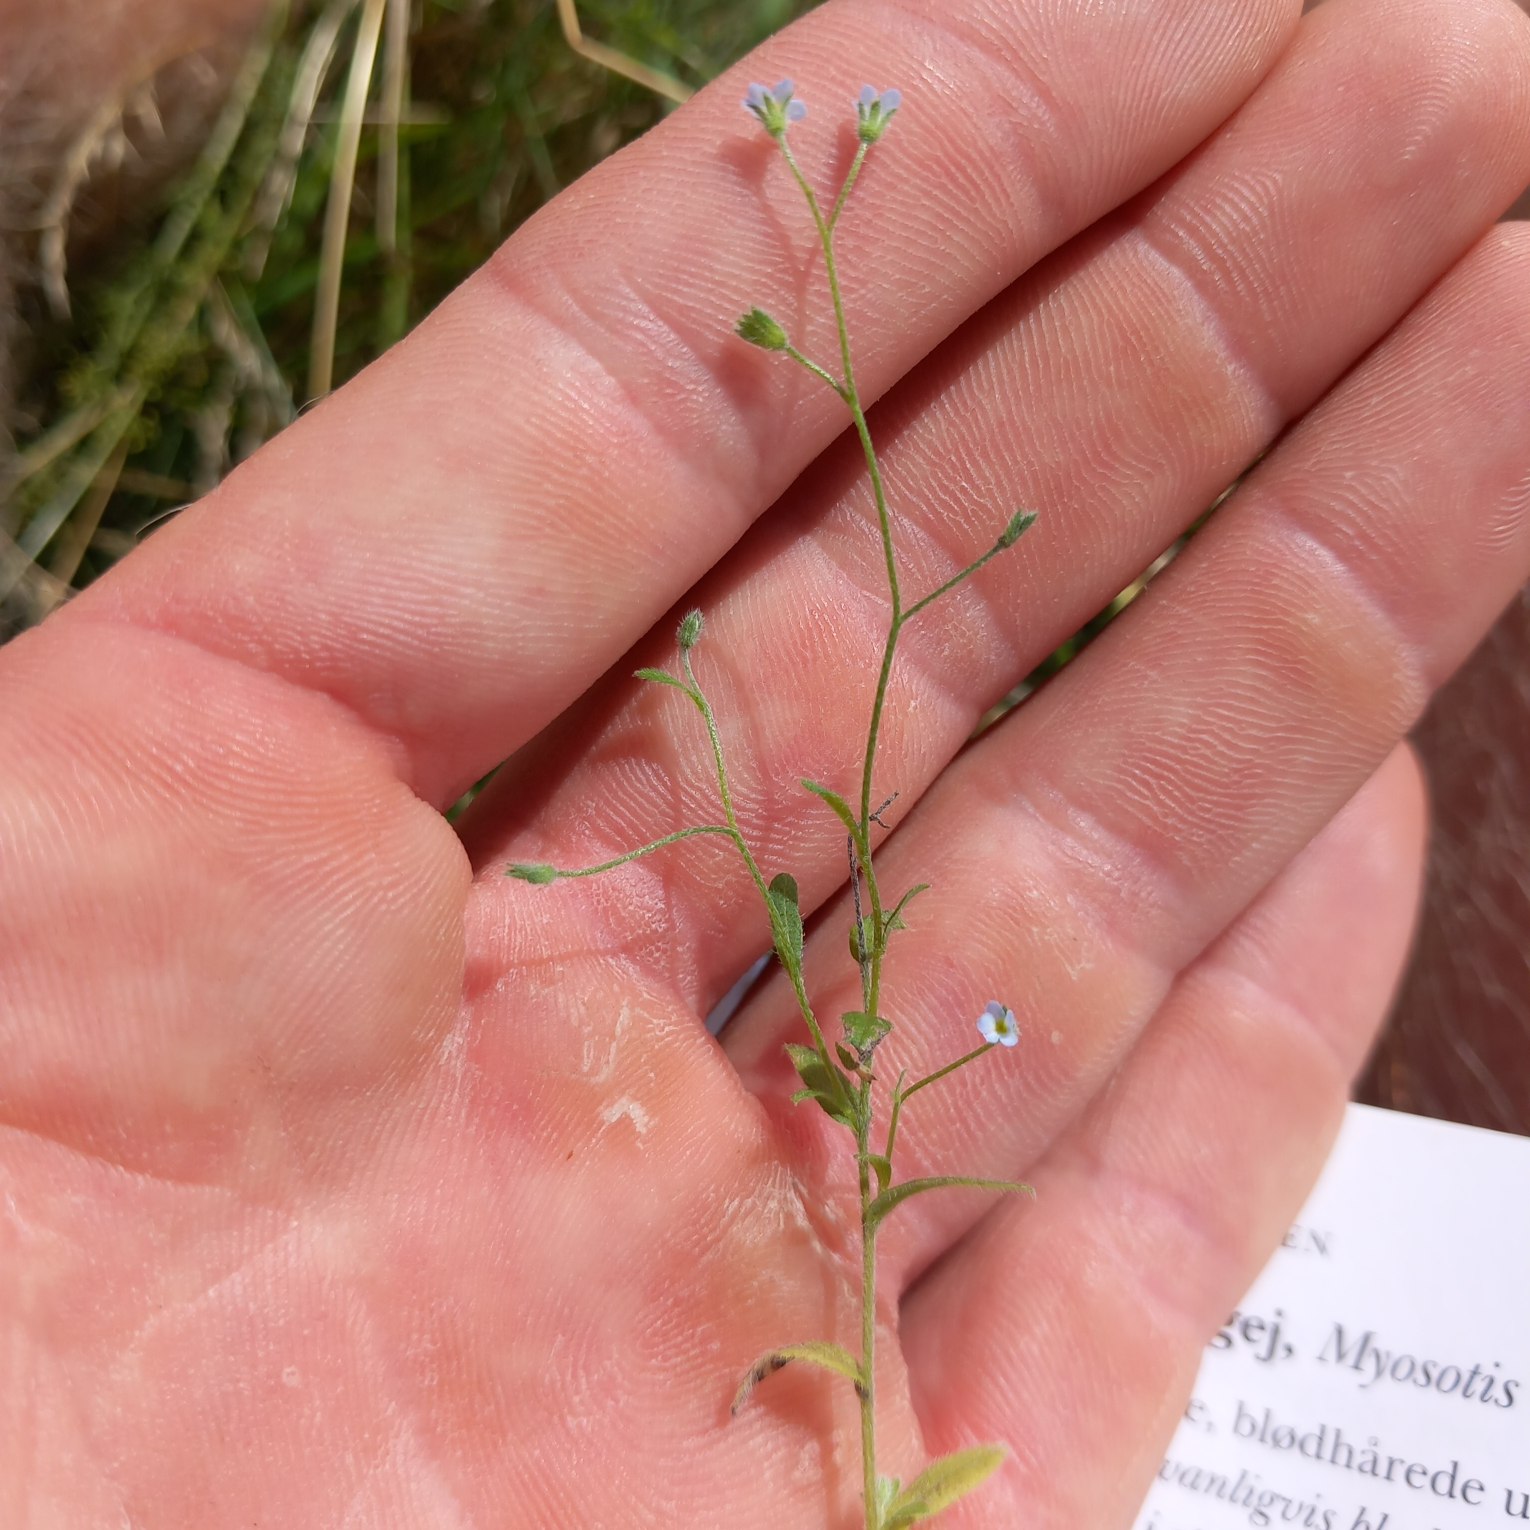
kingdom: Plantae
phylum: Tracheophyta
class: Magnoliopsida
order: Boraginales
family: Boraginaceae
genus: Myosotis
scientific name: Myosotis arvensis
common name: Mark-forglemmigej
